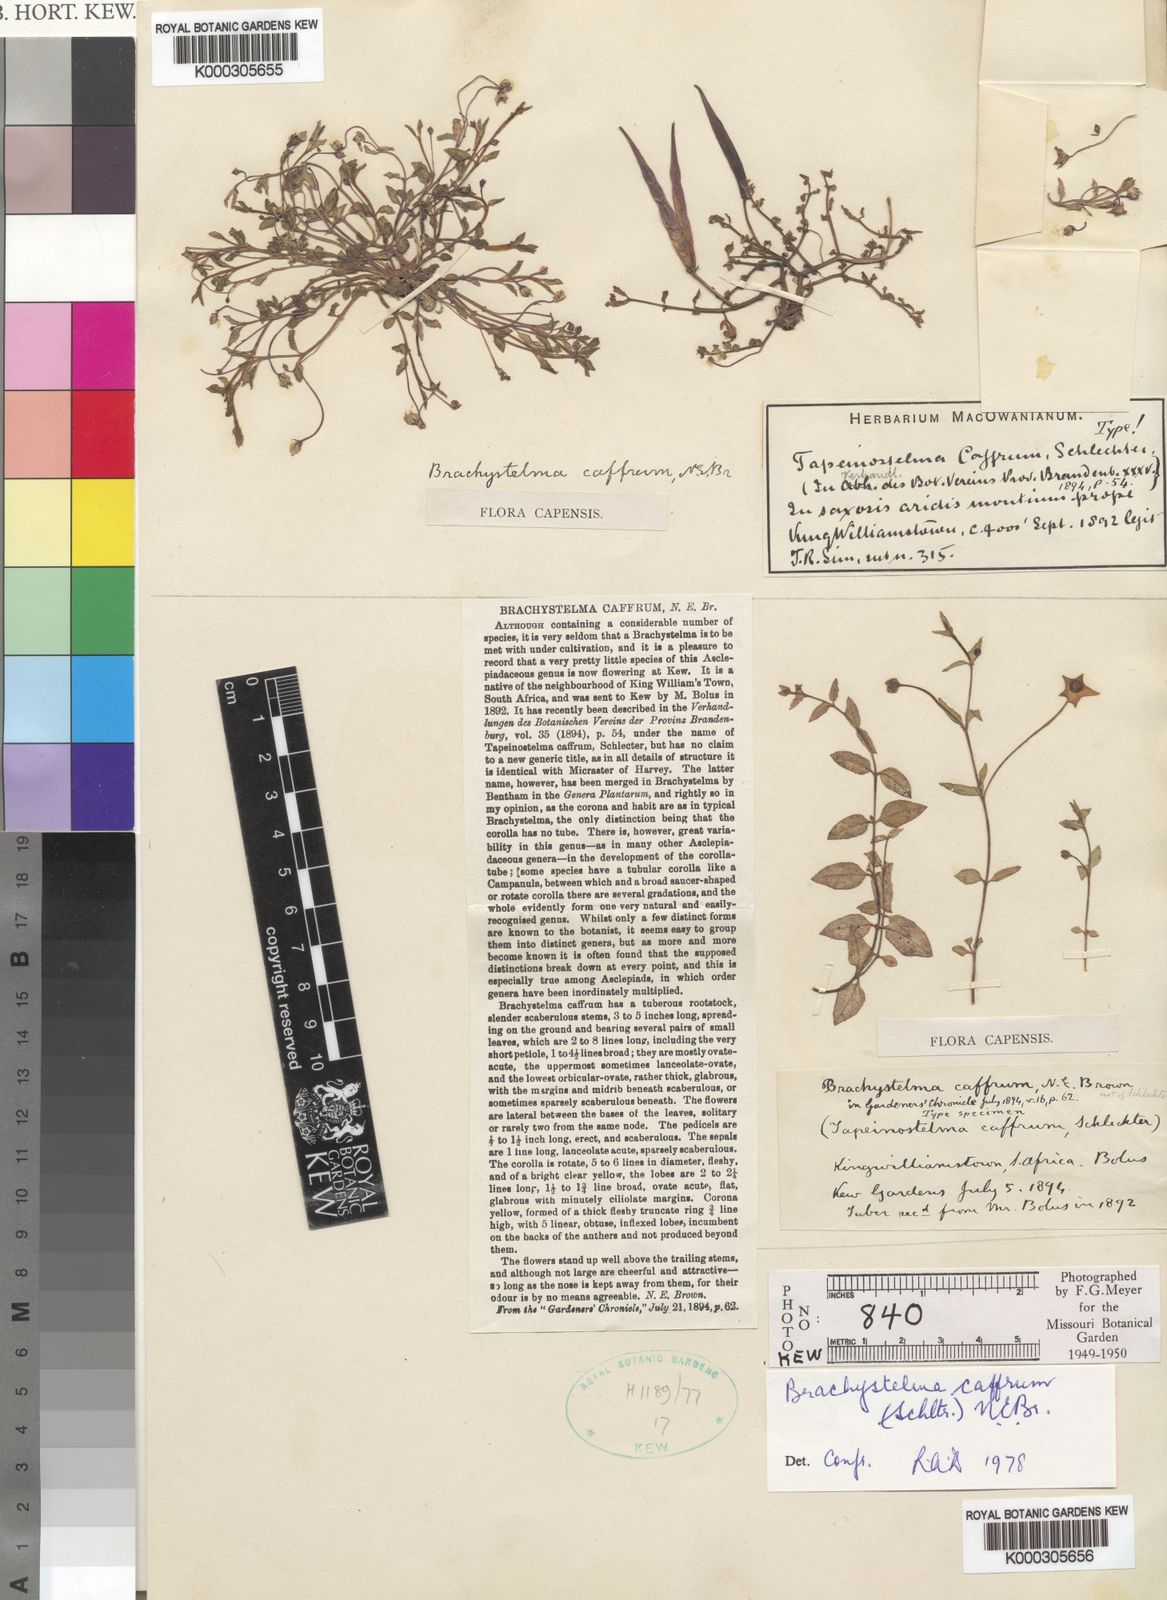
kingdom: Plantae
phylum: Tracheophyta
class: Magnoliopsida
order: Gentianales
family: Apocynaceae
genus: Ceropegia
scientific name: Ceropegia caffra
